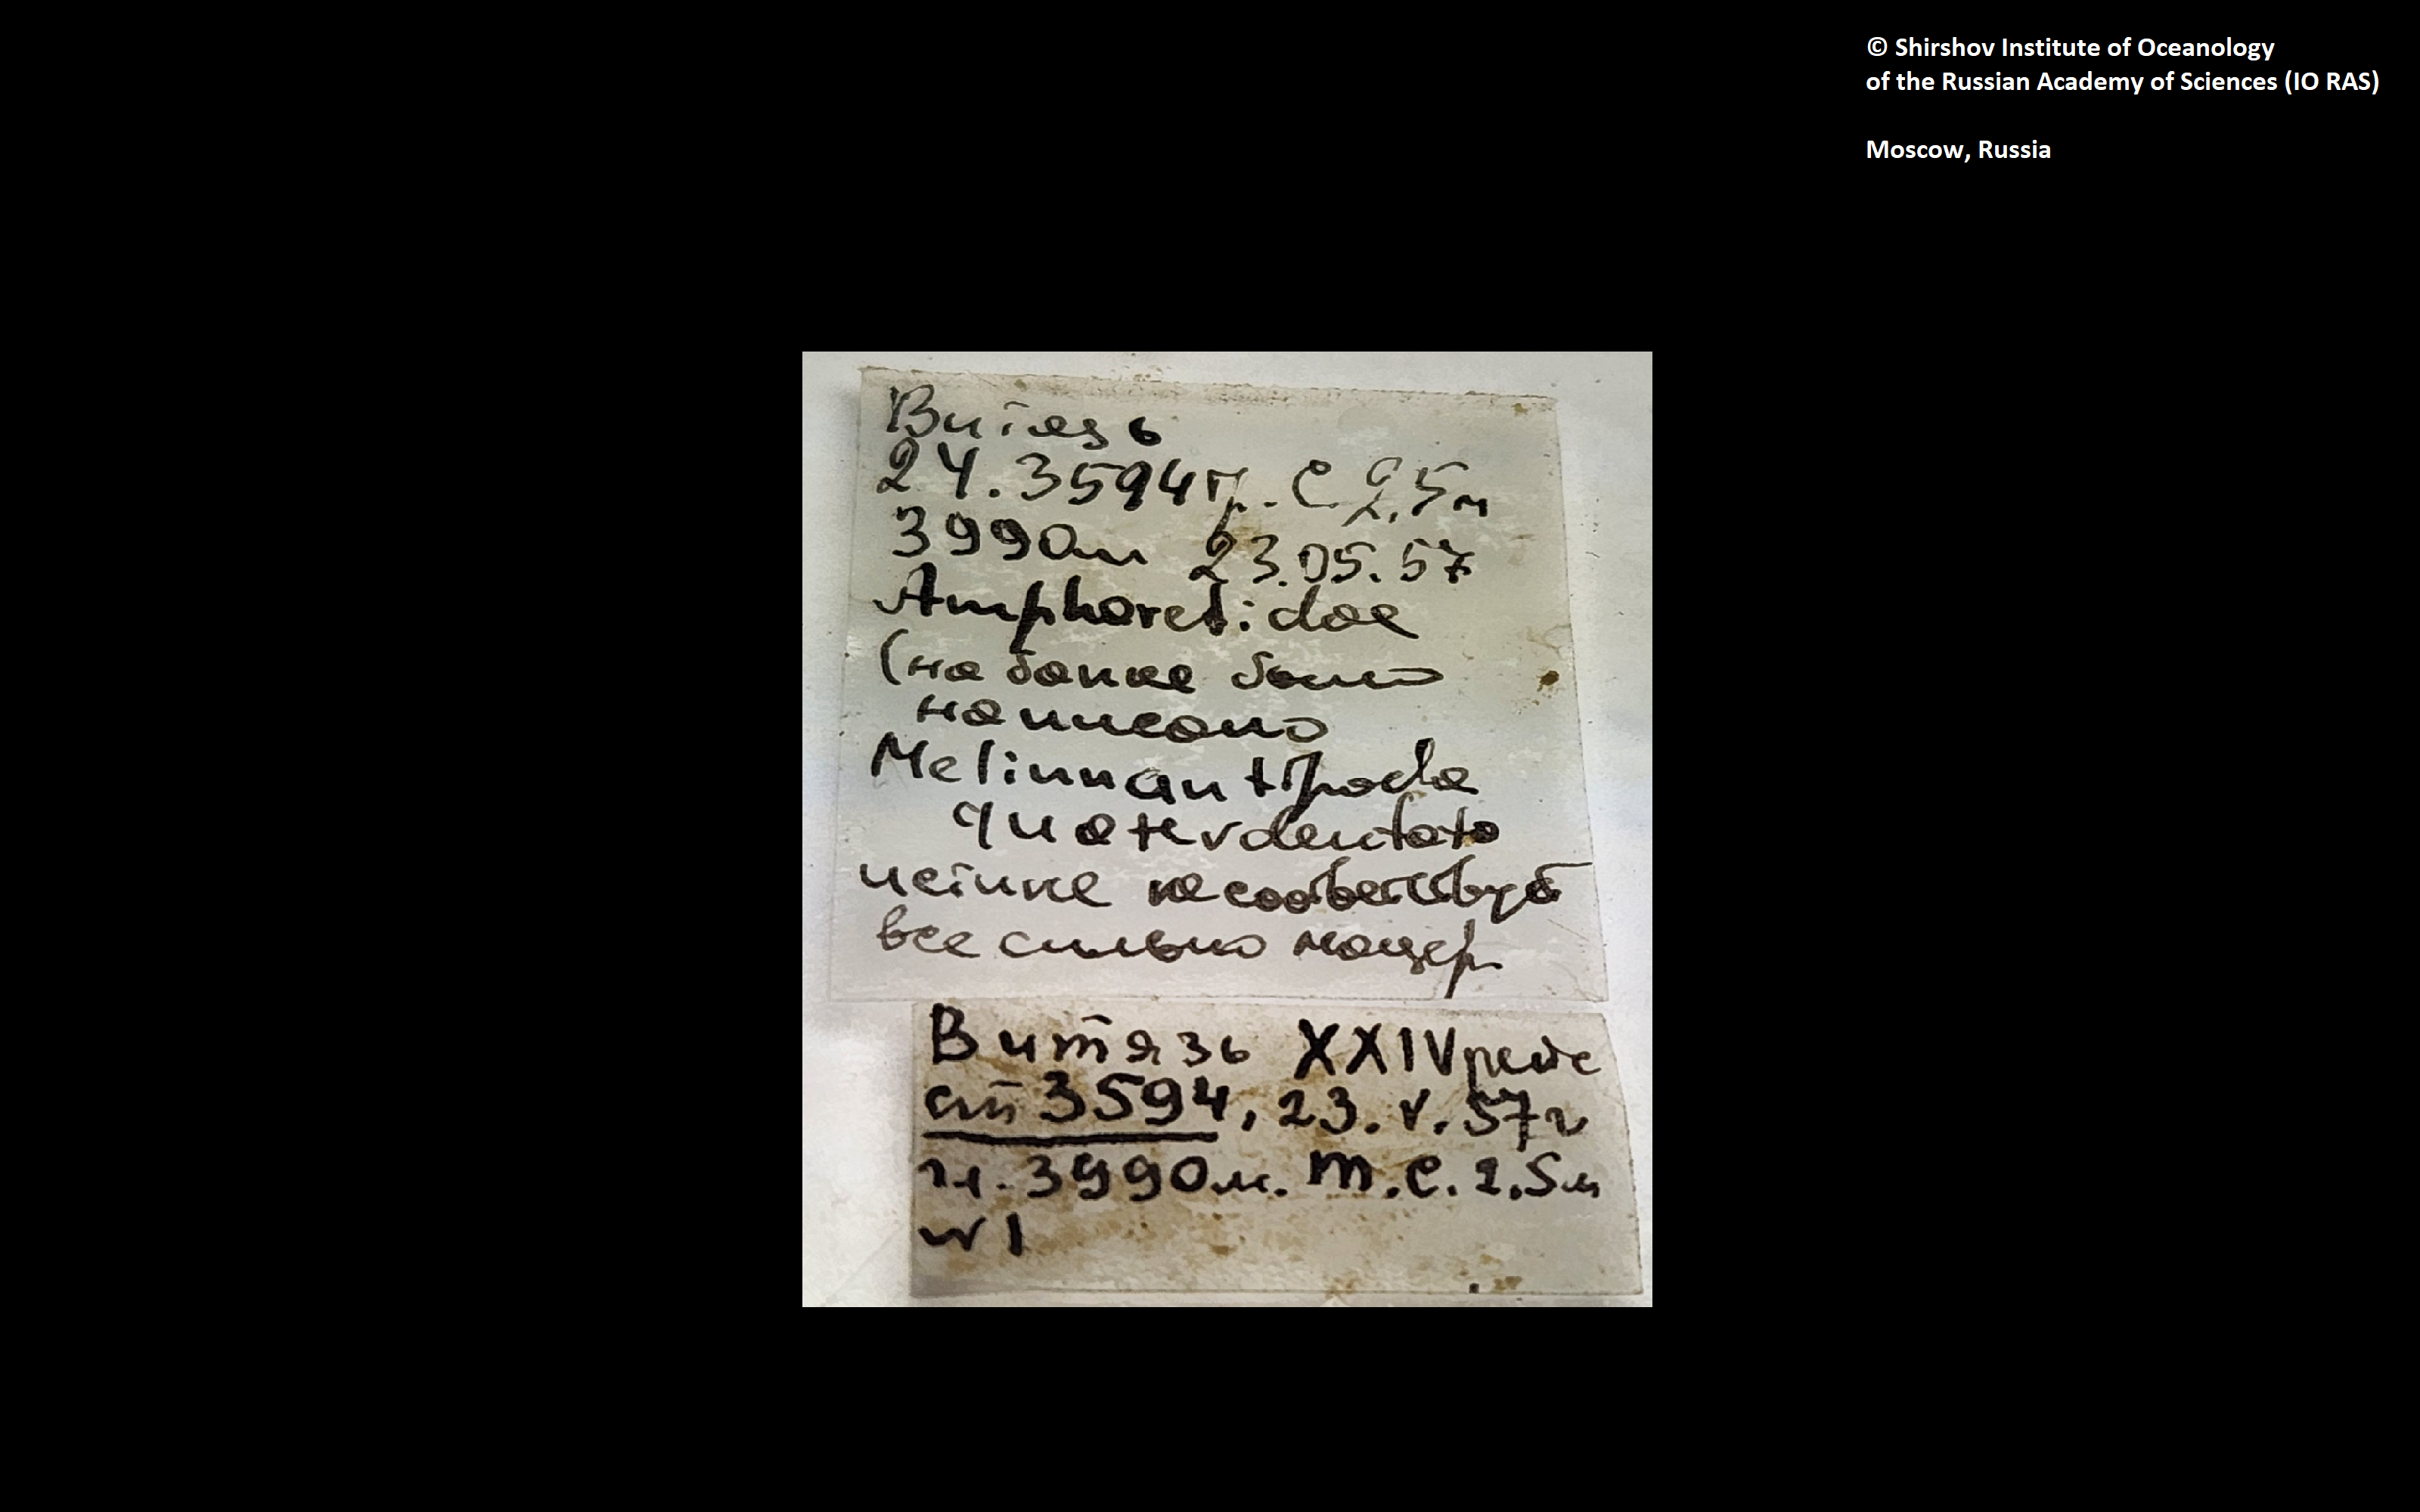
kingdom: Animalia
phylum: Annelida
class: Polychaeta
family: Melinnidae
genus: Melinnides
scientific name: Melinnides
